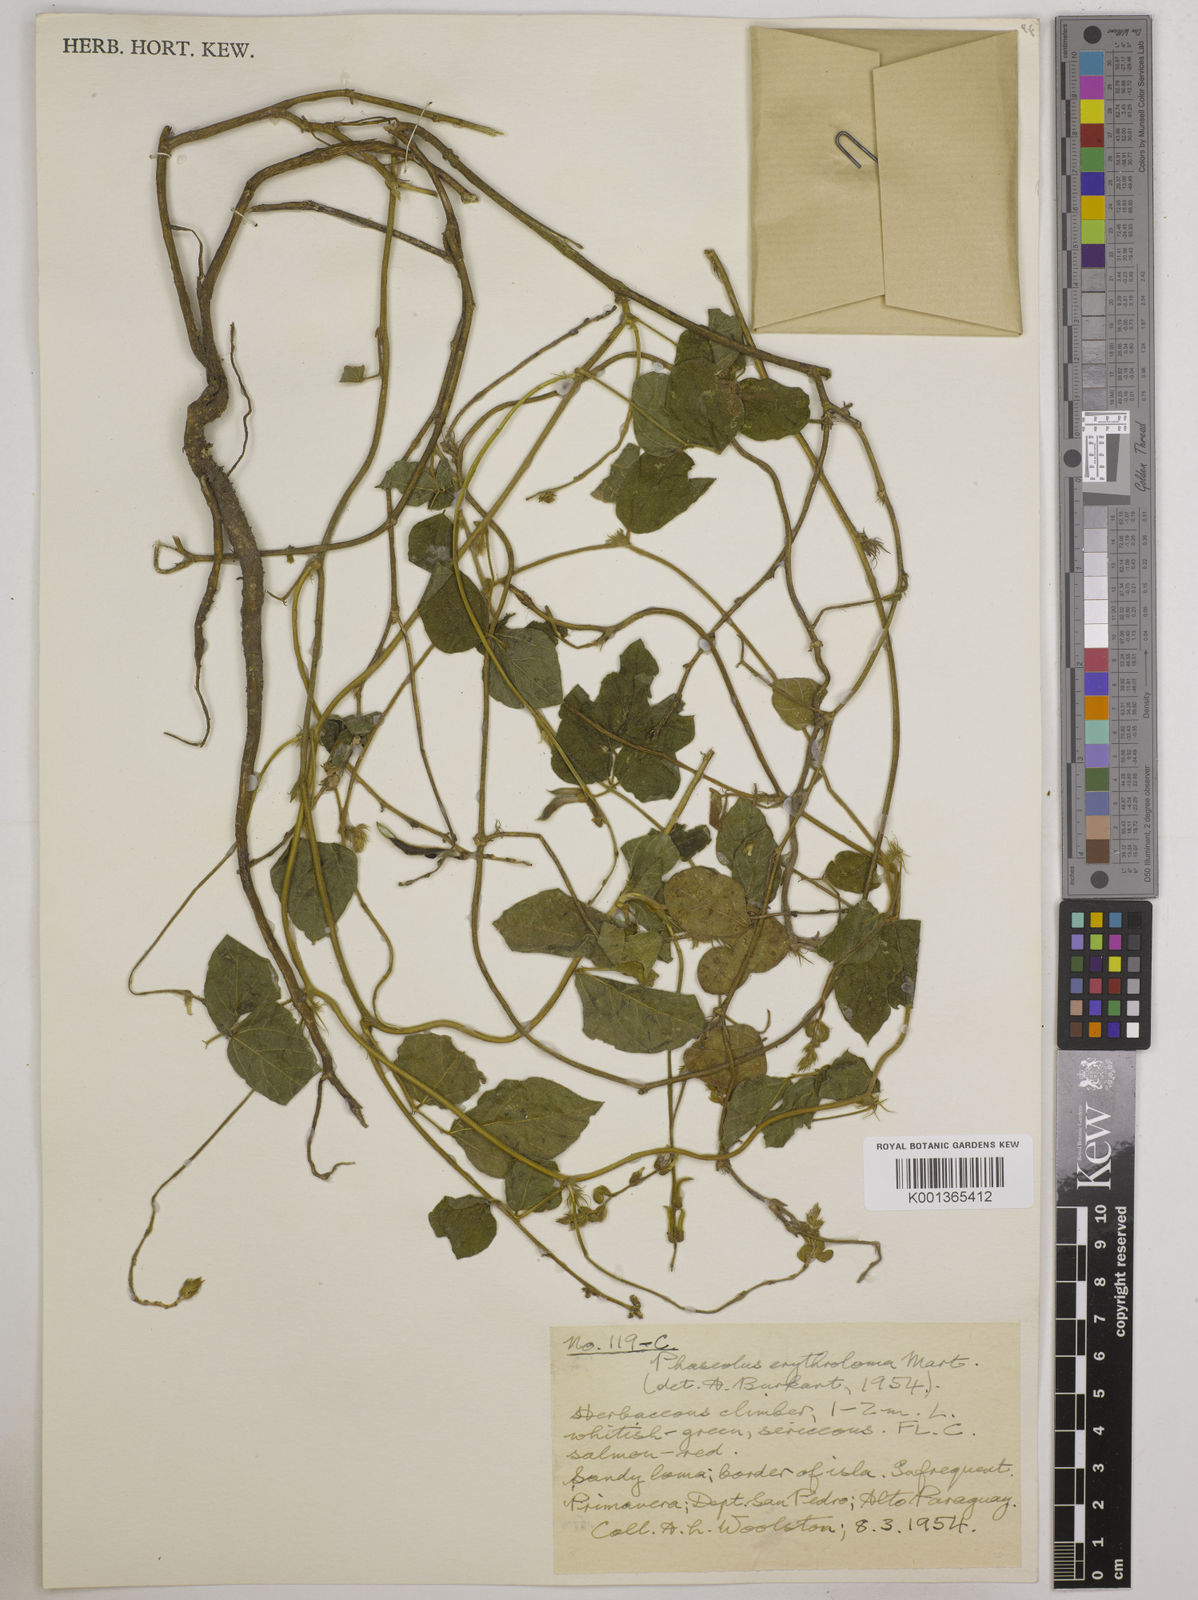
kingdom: Plantae
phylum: Tracheophyta
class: Magnoliopsida
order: Fabales
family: Fabaceae
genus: Macroptilium
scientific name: Macroptilium erythroloma
